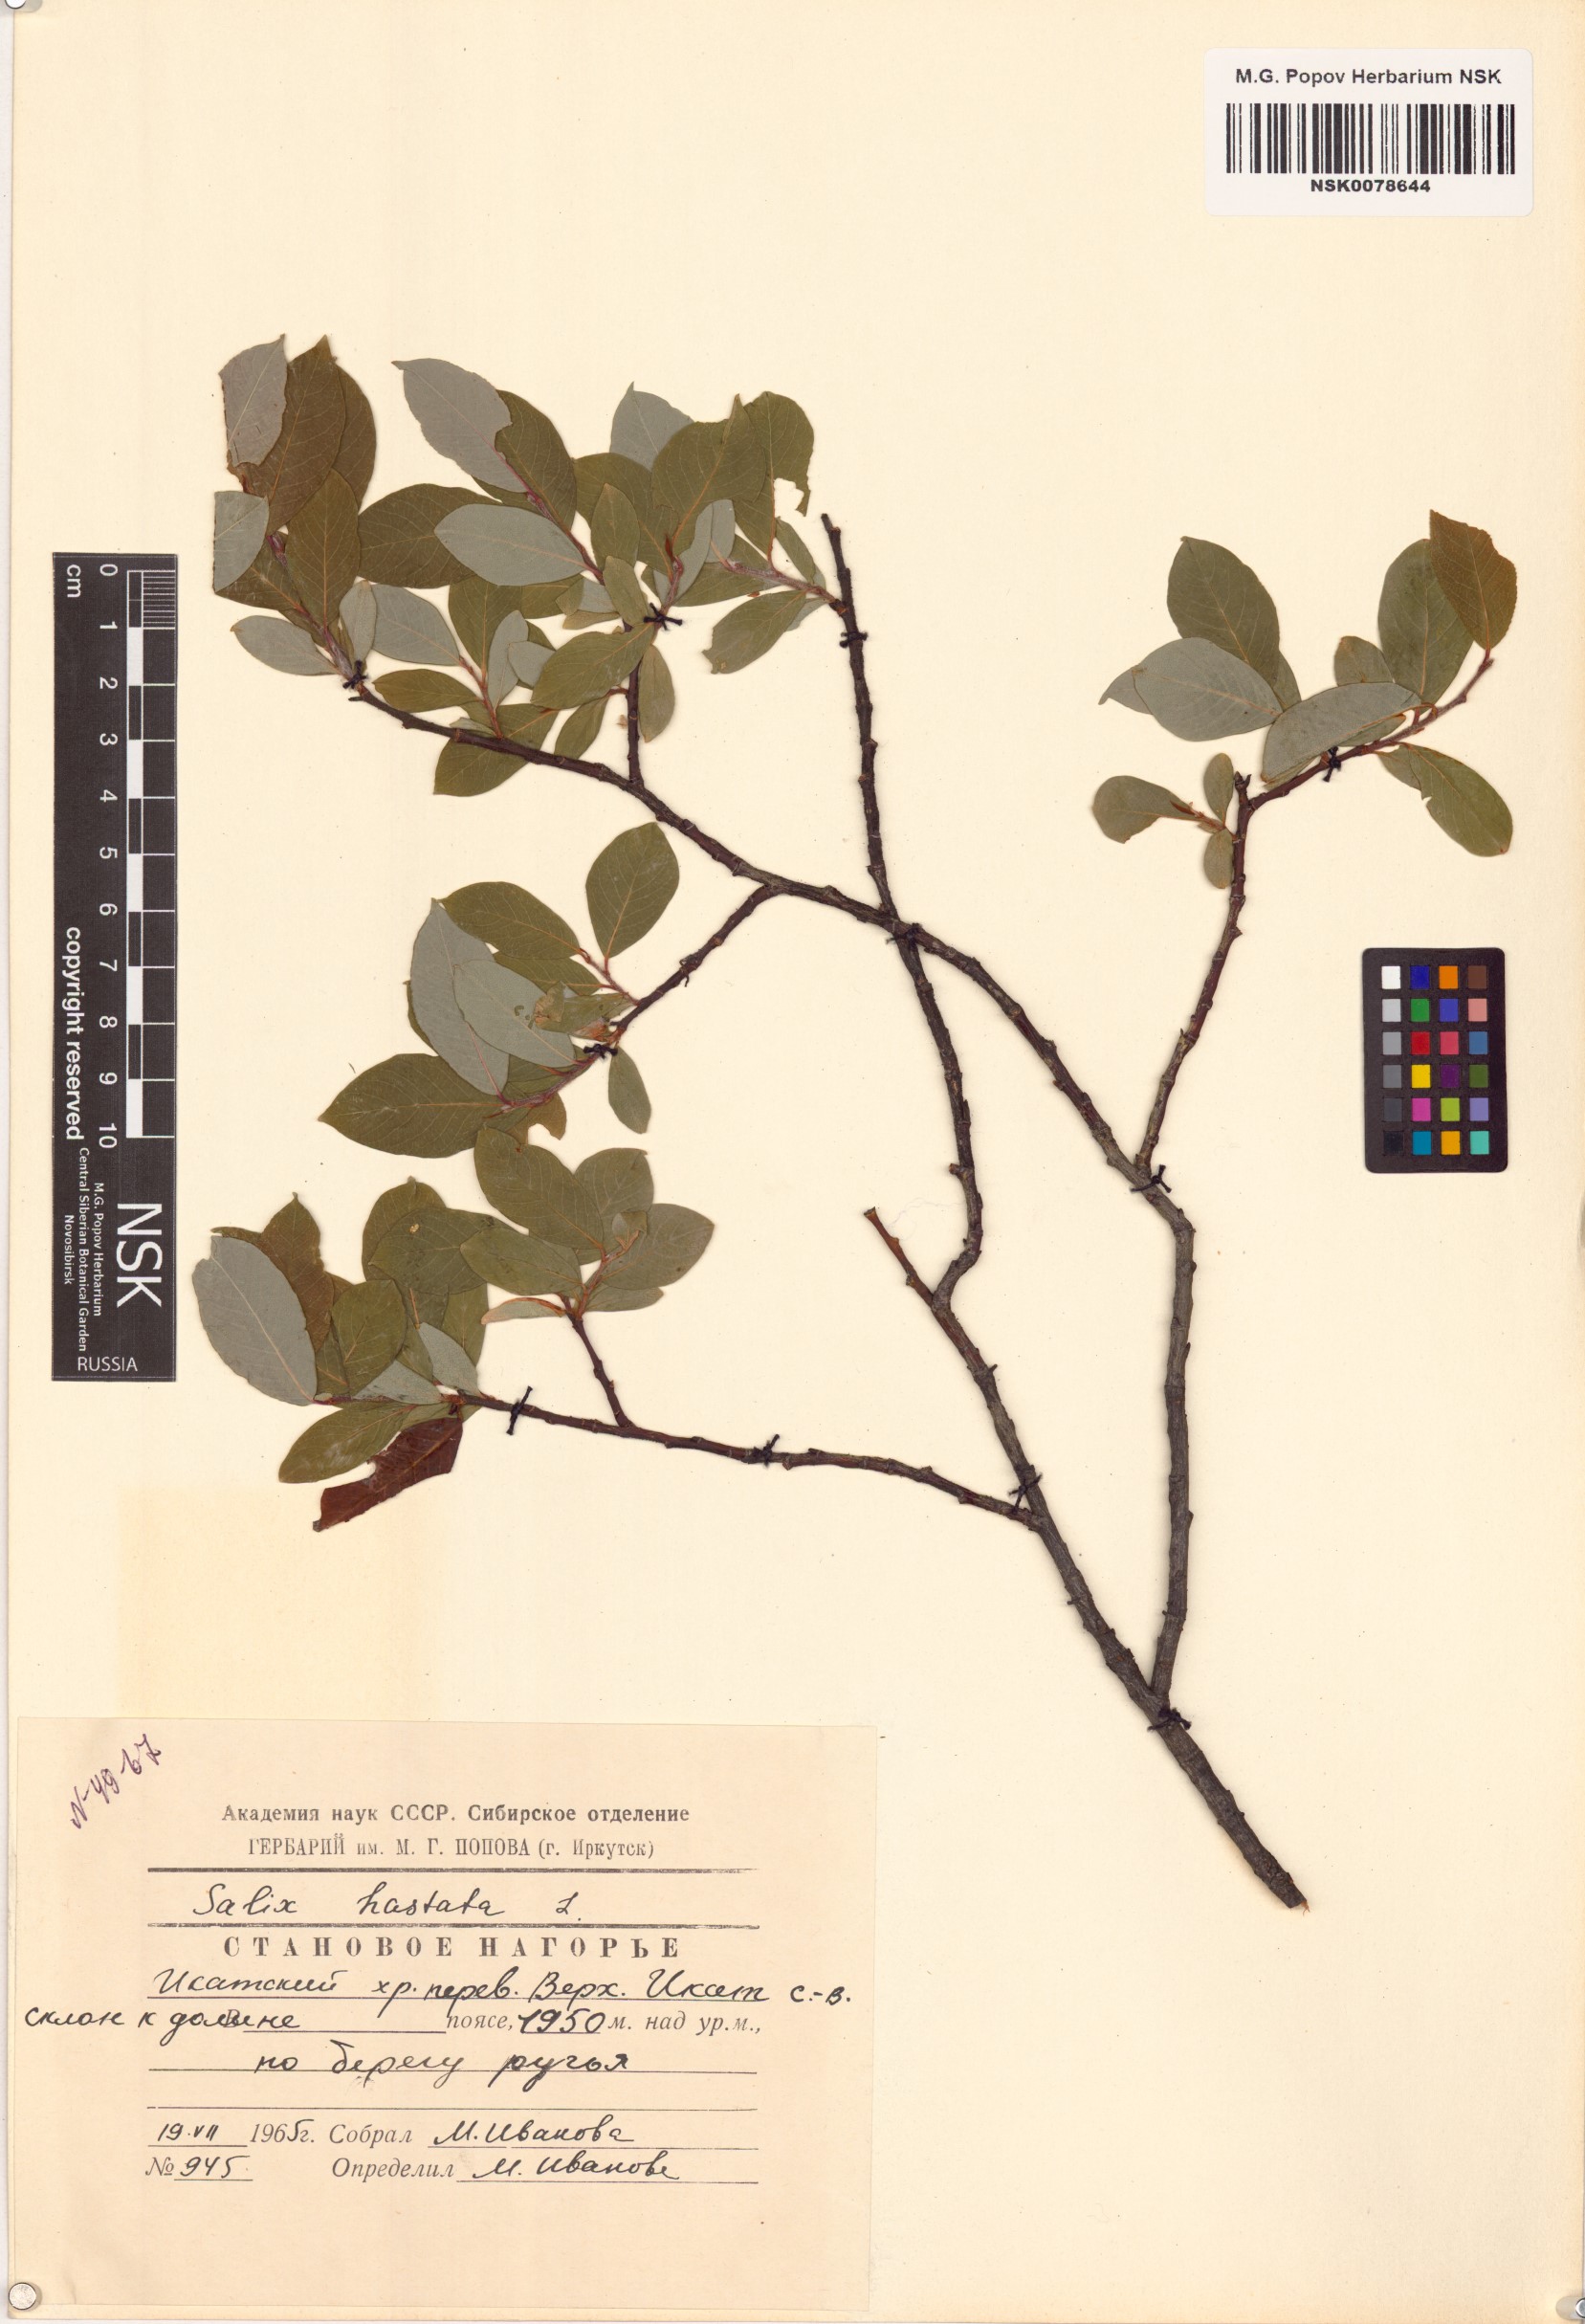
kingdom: Plantae
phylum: Tracheophyta
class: Magnoliopsida
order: Malpighiales
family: Salicaceae
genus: Salix
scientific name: Salix hastata
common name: Halberd willow
